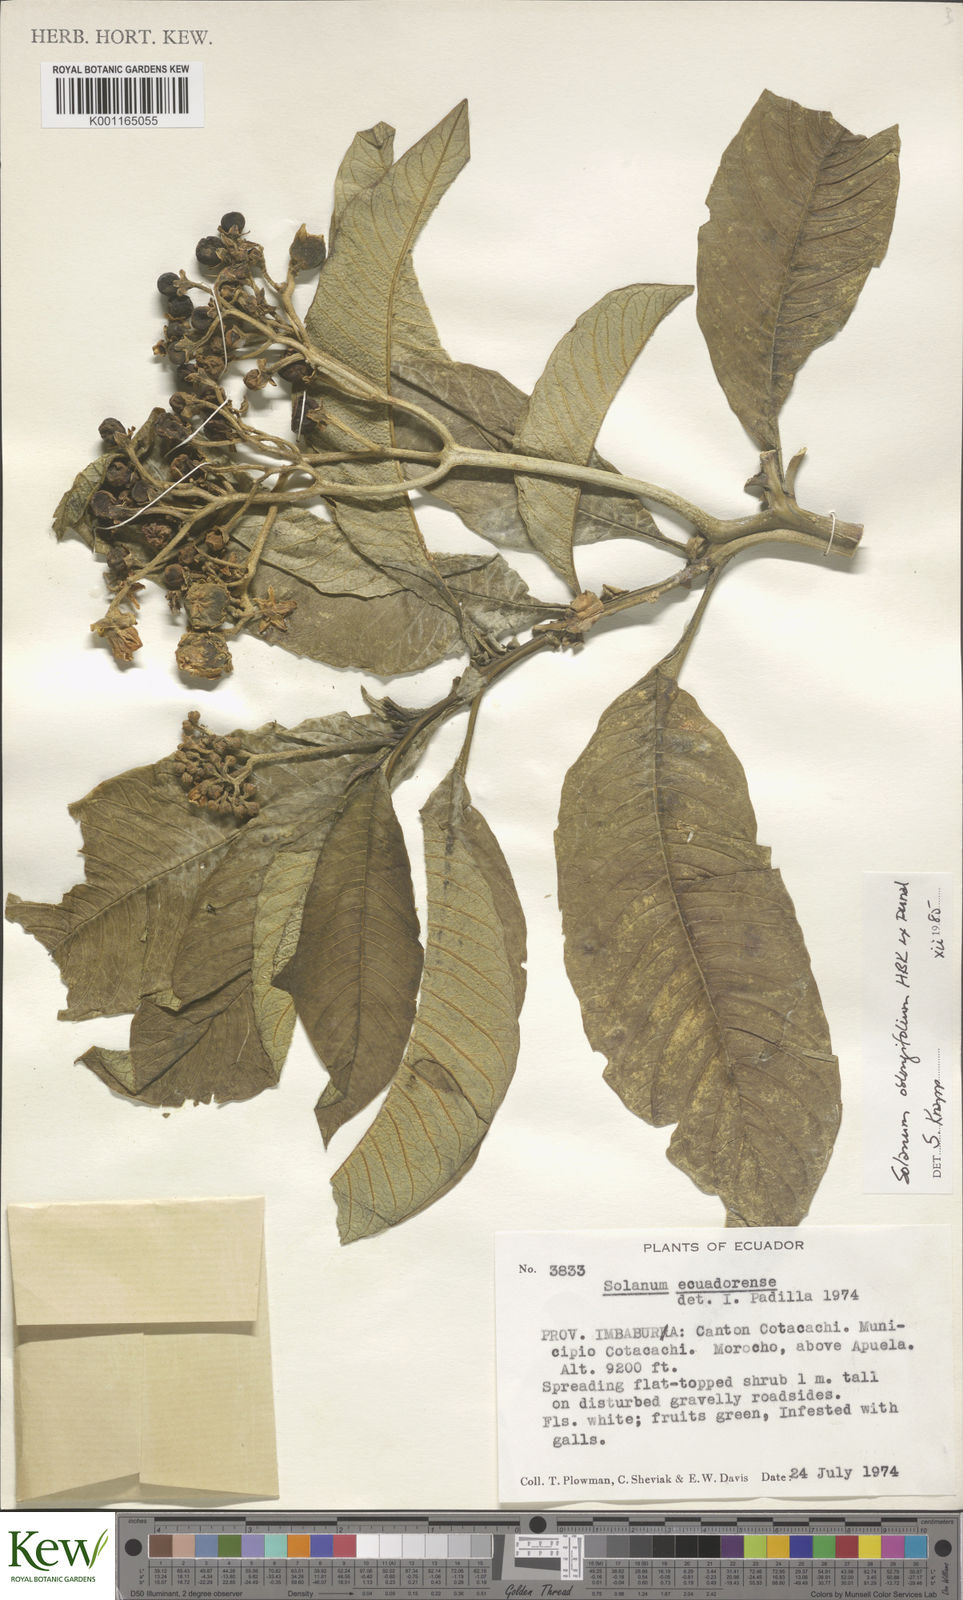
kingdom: Plantae
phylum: Tracheophyta
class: Magnoliopsida
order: Solanales
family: Solanaceae
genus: Solanum
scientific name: Solanum oblongifolium
